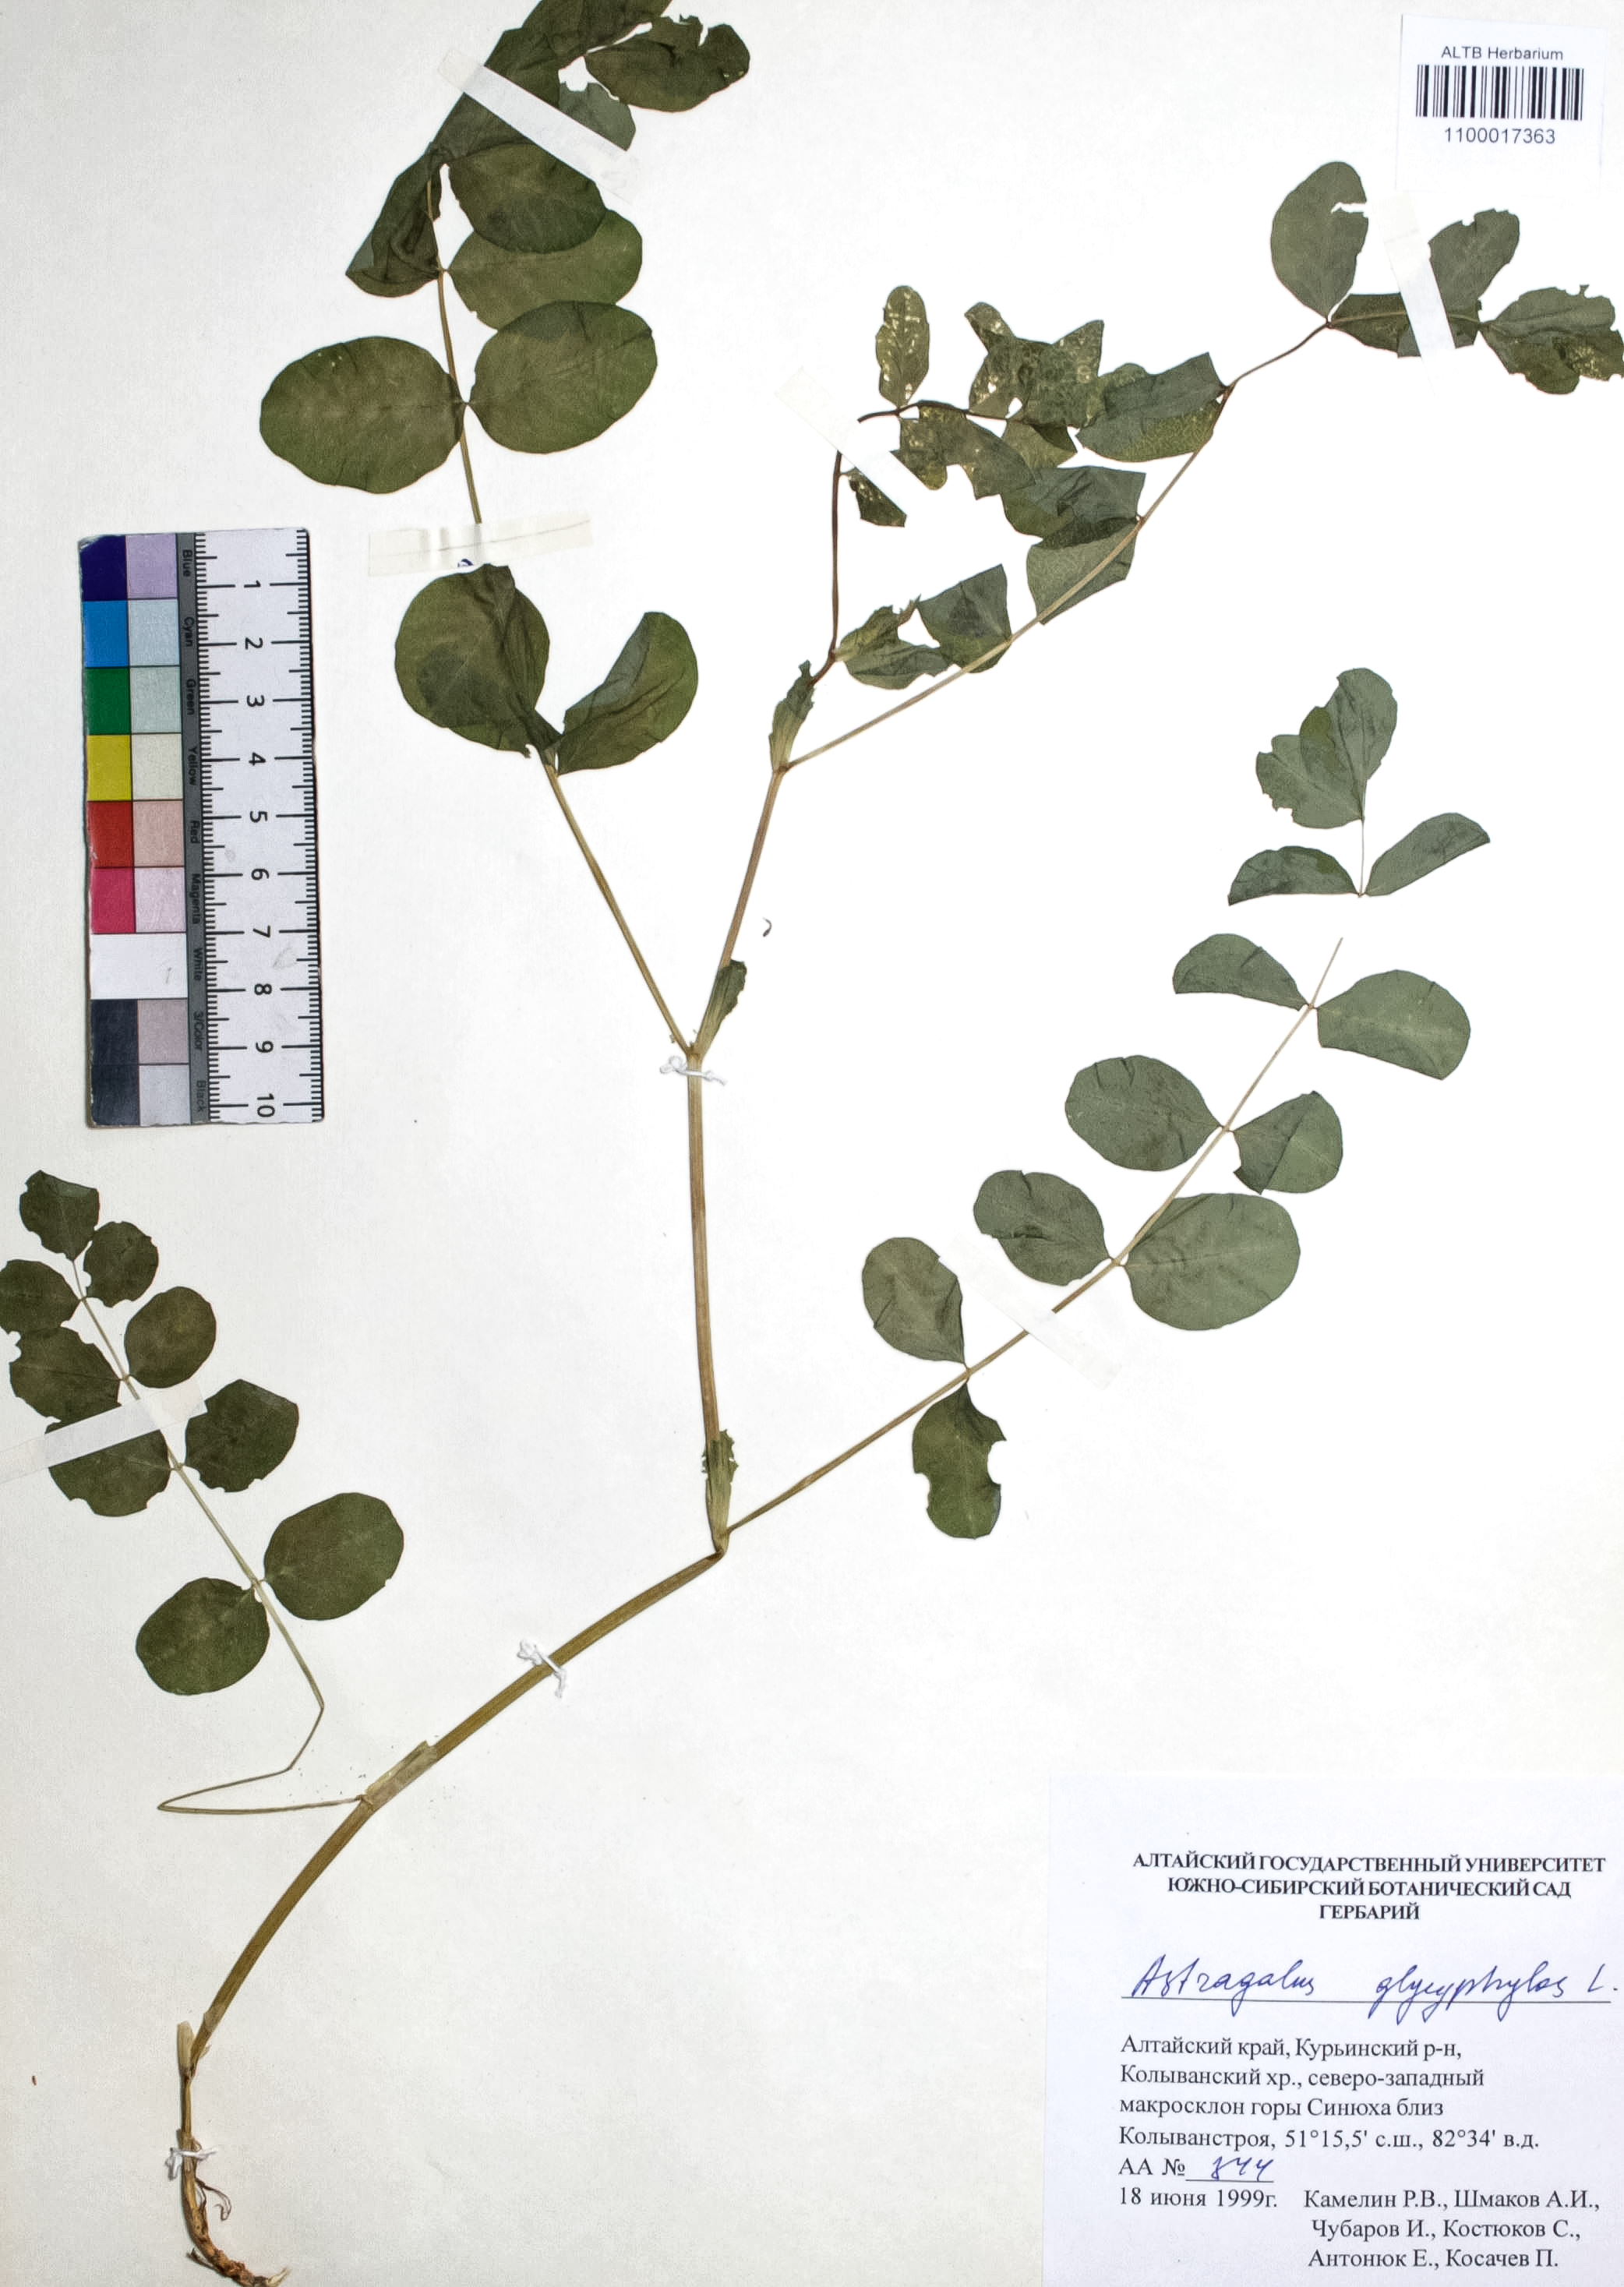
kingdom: Plantae
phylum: Tracheophyta
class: Magnoliopsida
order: Fabales
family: Fabaceae
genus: Astragalus
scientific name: Astragalus glycyphyllos
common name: Wild liquorice
